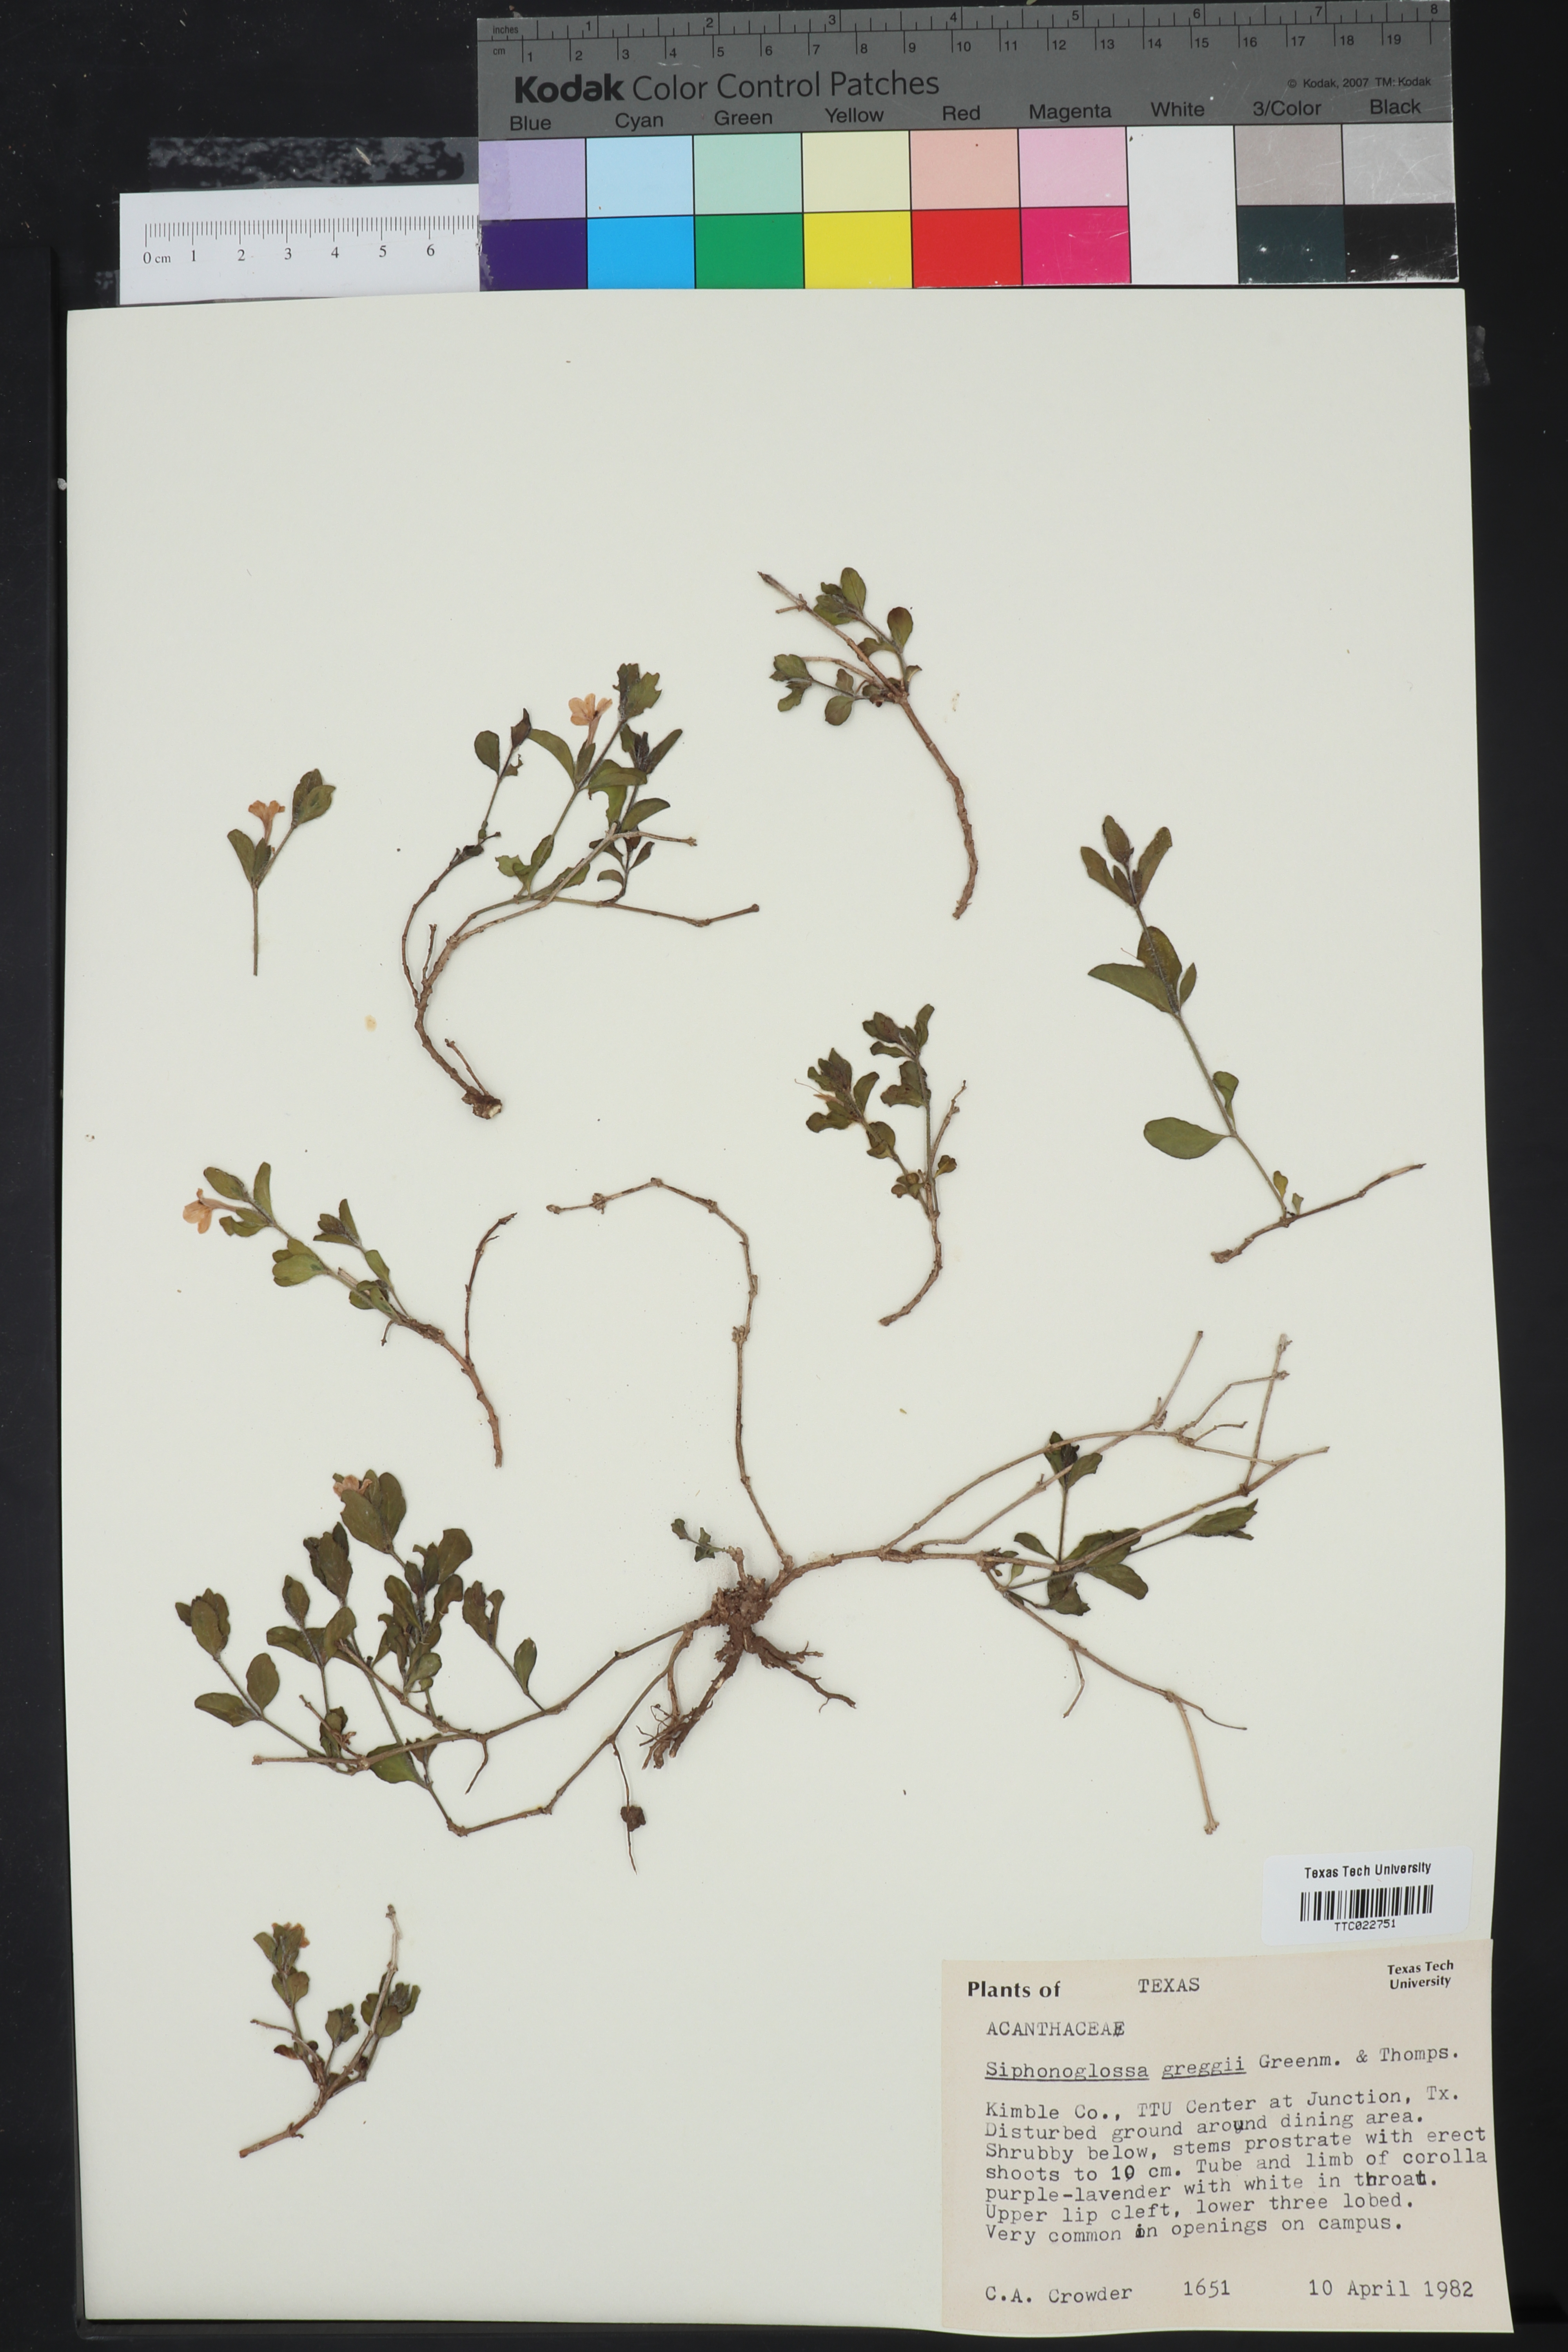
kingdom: Plantae
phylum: Tracheophyta
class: Magnoliopsida
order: Lamiales
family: Acanthaceae
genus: Justicia
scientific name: Justicia pilosella
